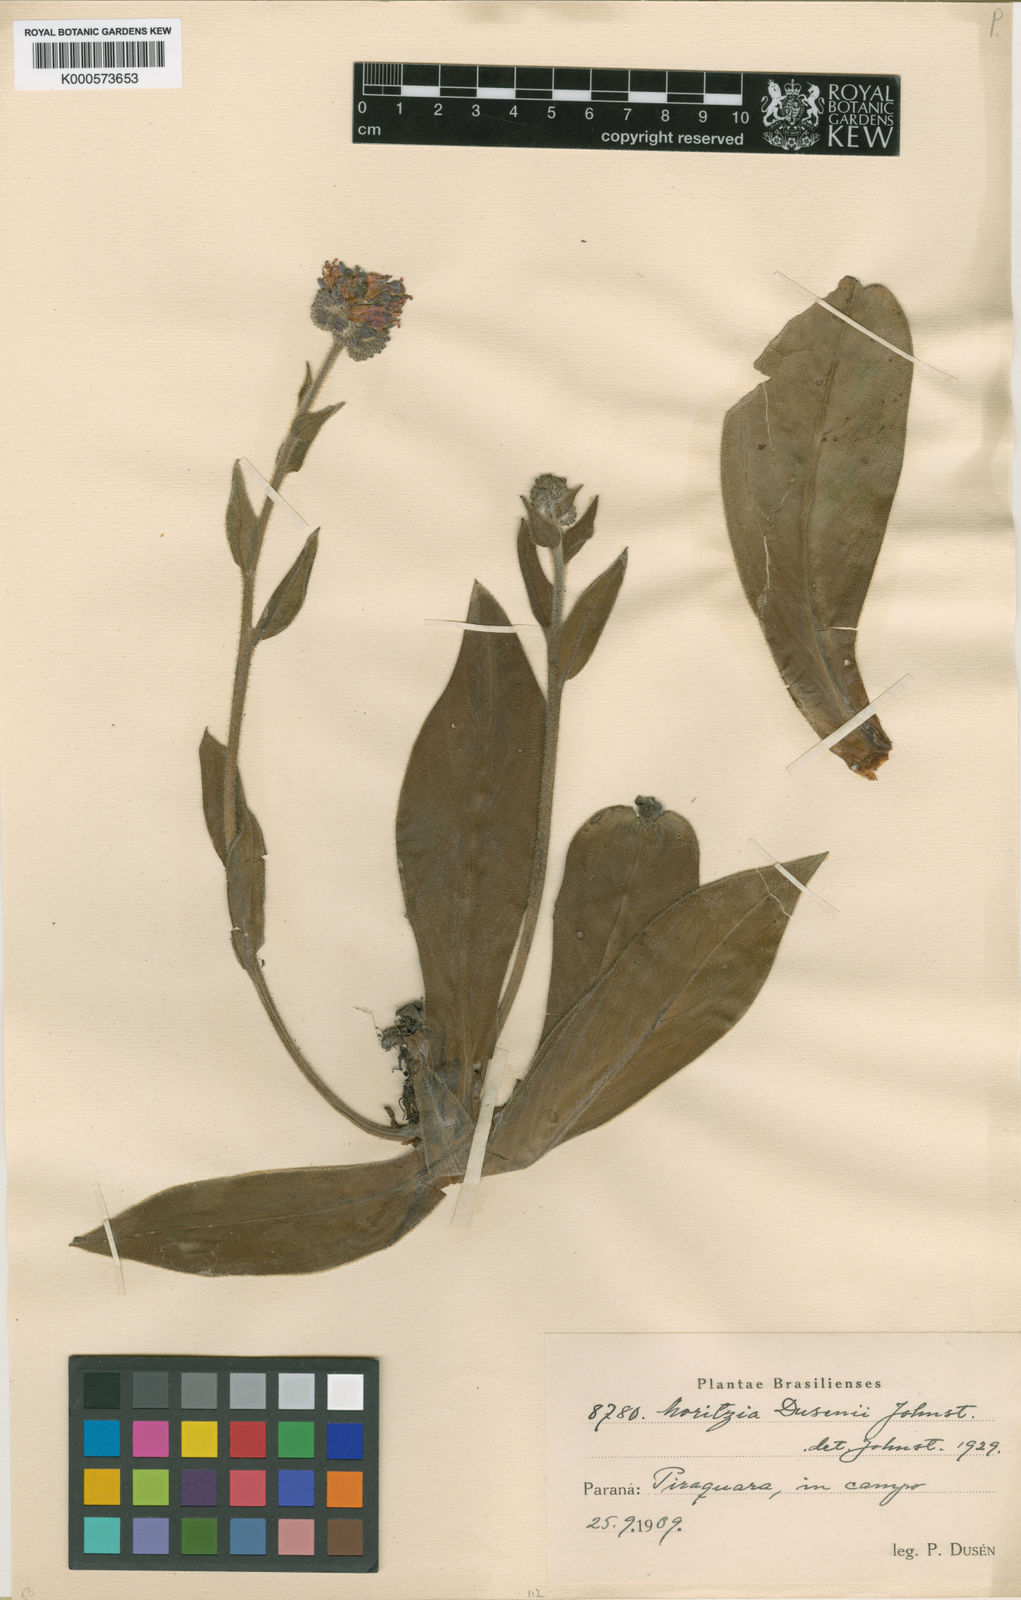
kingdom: Plantae
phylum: Tracheophyta
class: Magnoliopsida
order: Boraginales
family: Boraginaceae
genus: Moritzia
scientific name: Moritzia dusenii
